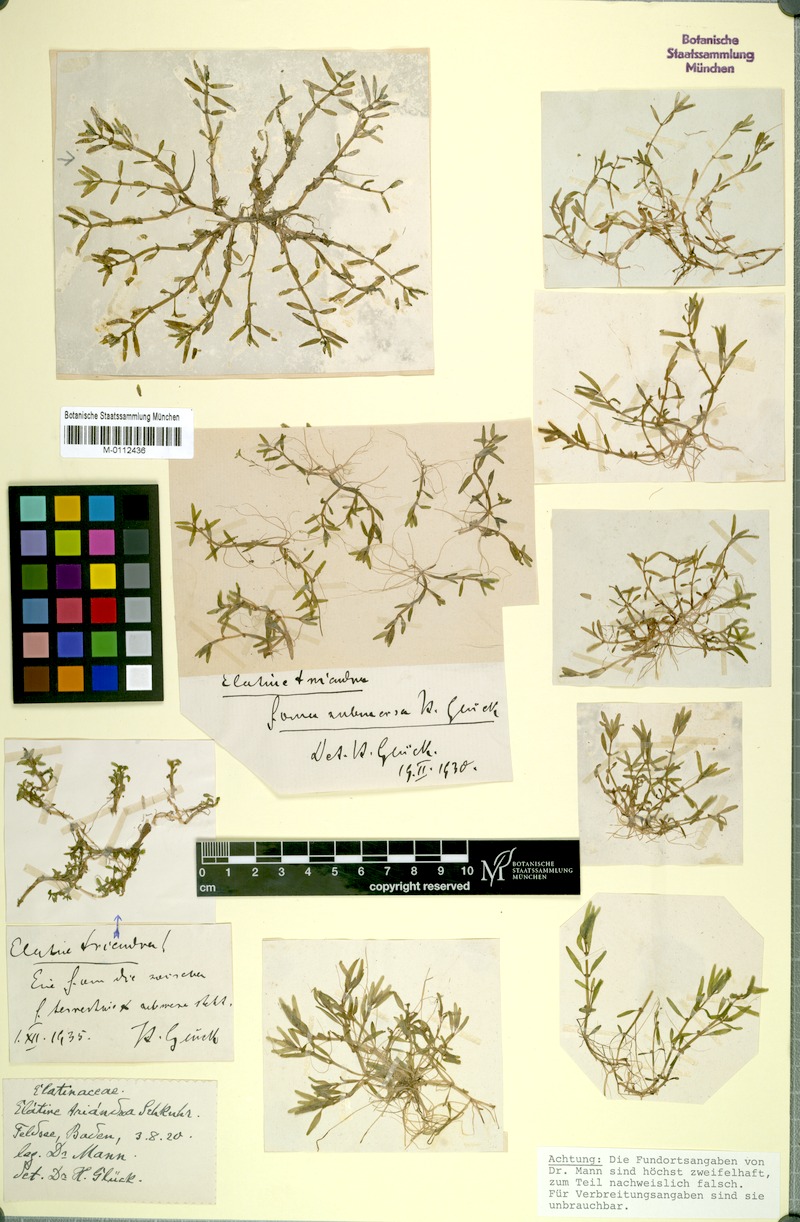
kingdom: Plantae
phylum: Tracheophyta
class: Magnoliopsida
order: Malpighiales
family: Elatinaceae
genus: Elatine
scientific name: Elatine triandra
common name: Three-stamened waterwort
